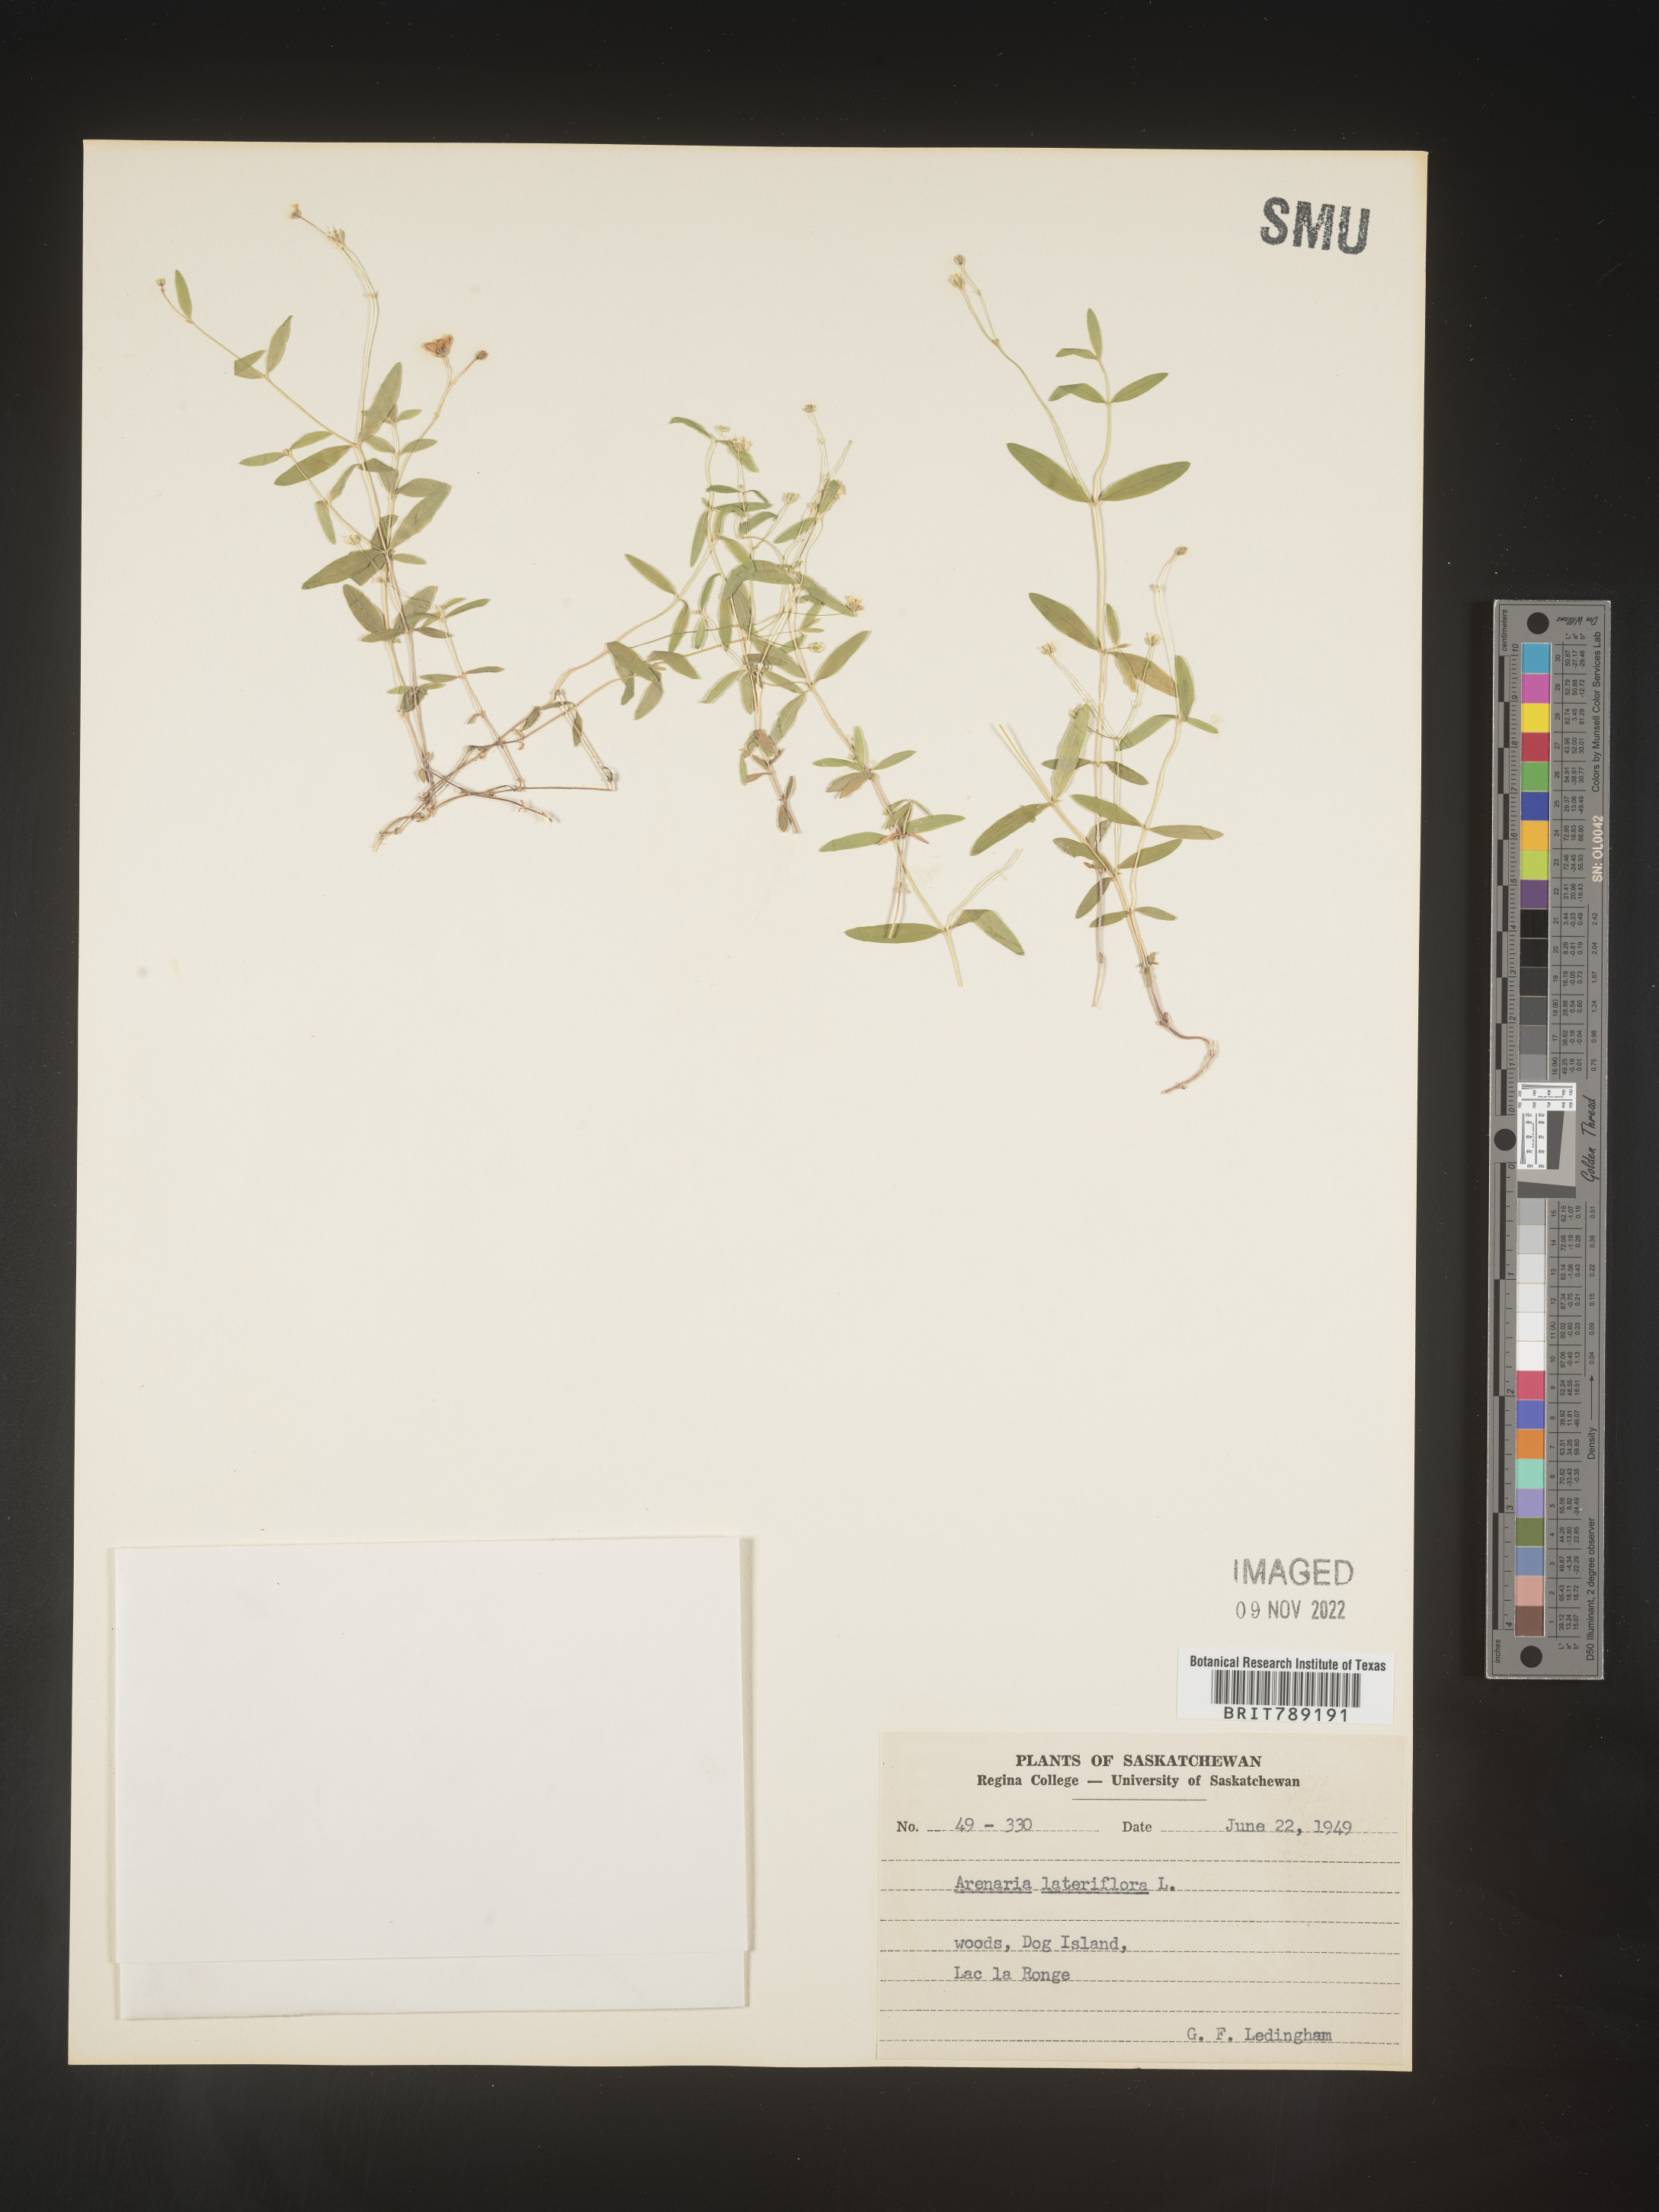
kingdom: Plantae
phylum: Tracheophyta
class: Magnoliopsida
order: Caryophyllales
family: Caryophyllaceae
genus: Arenaria
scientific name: Arenaria
